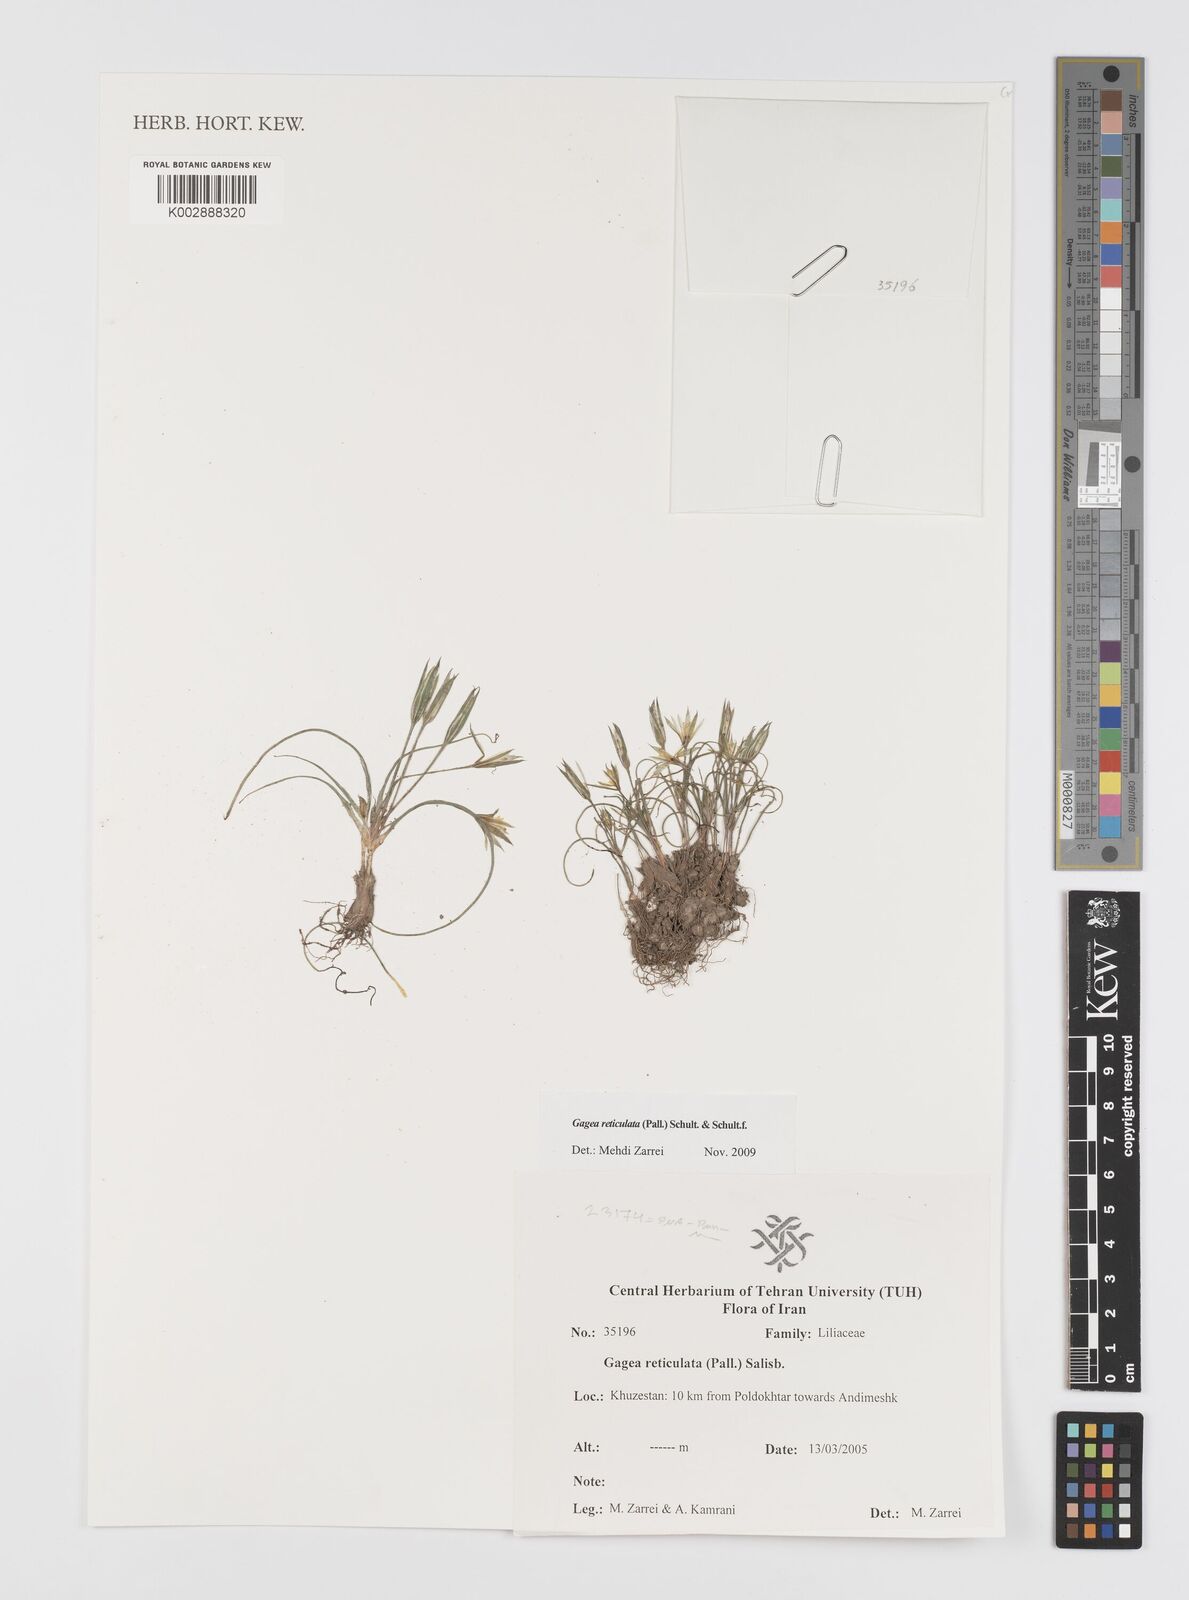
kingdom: Plantae
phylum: Tracheophyta
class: Liliopsida
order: Liliales
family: Liliaceae
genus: Gagea
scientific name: Gagea reticulata
